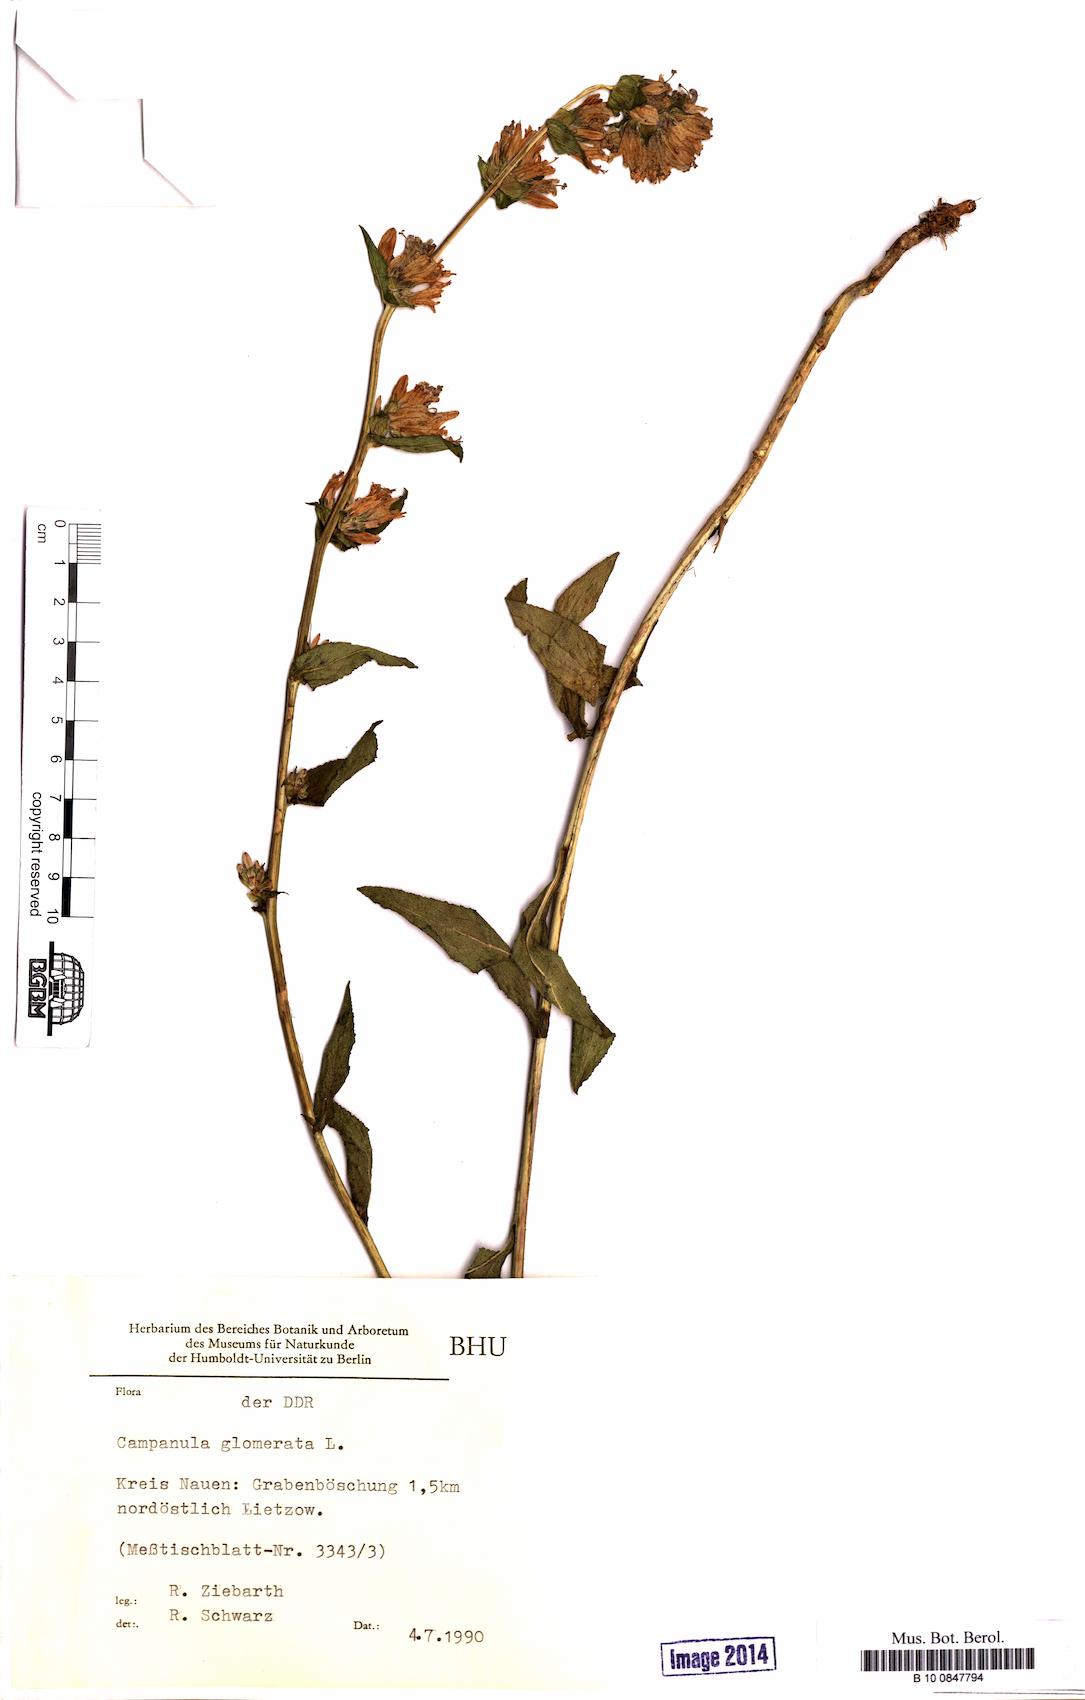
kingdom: Plantae
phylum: Tracheophyta
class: Magnoliopsida
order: Asterales
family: Campanulaceae
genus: Campanula
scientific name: Campanula glomerata
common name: Clustered bellflower
